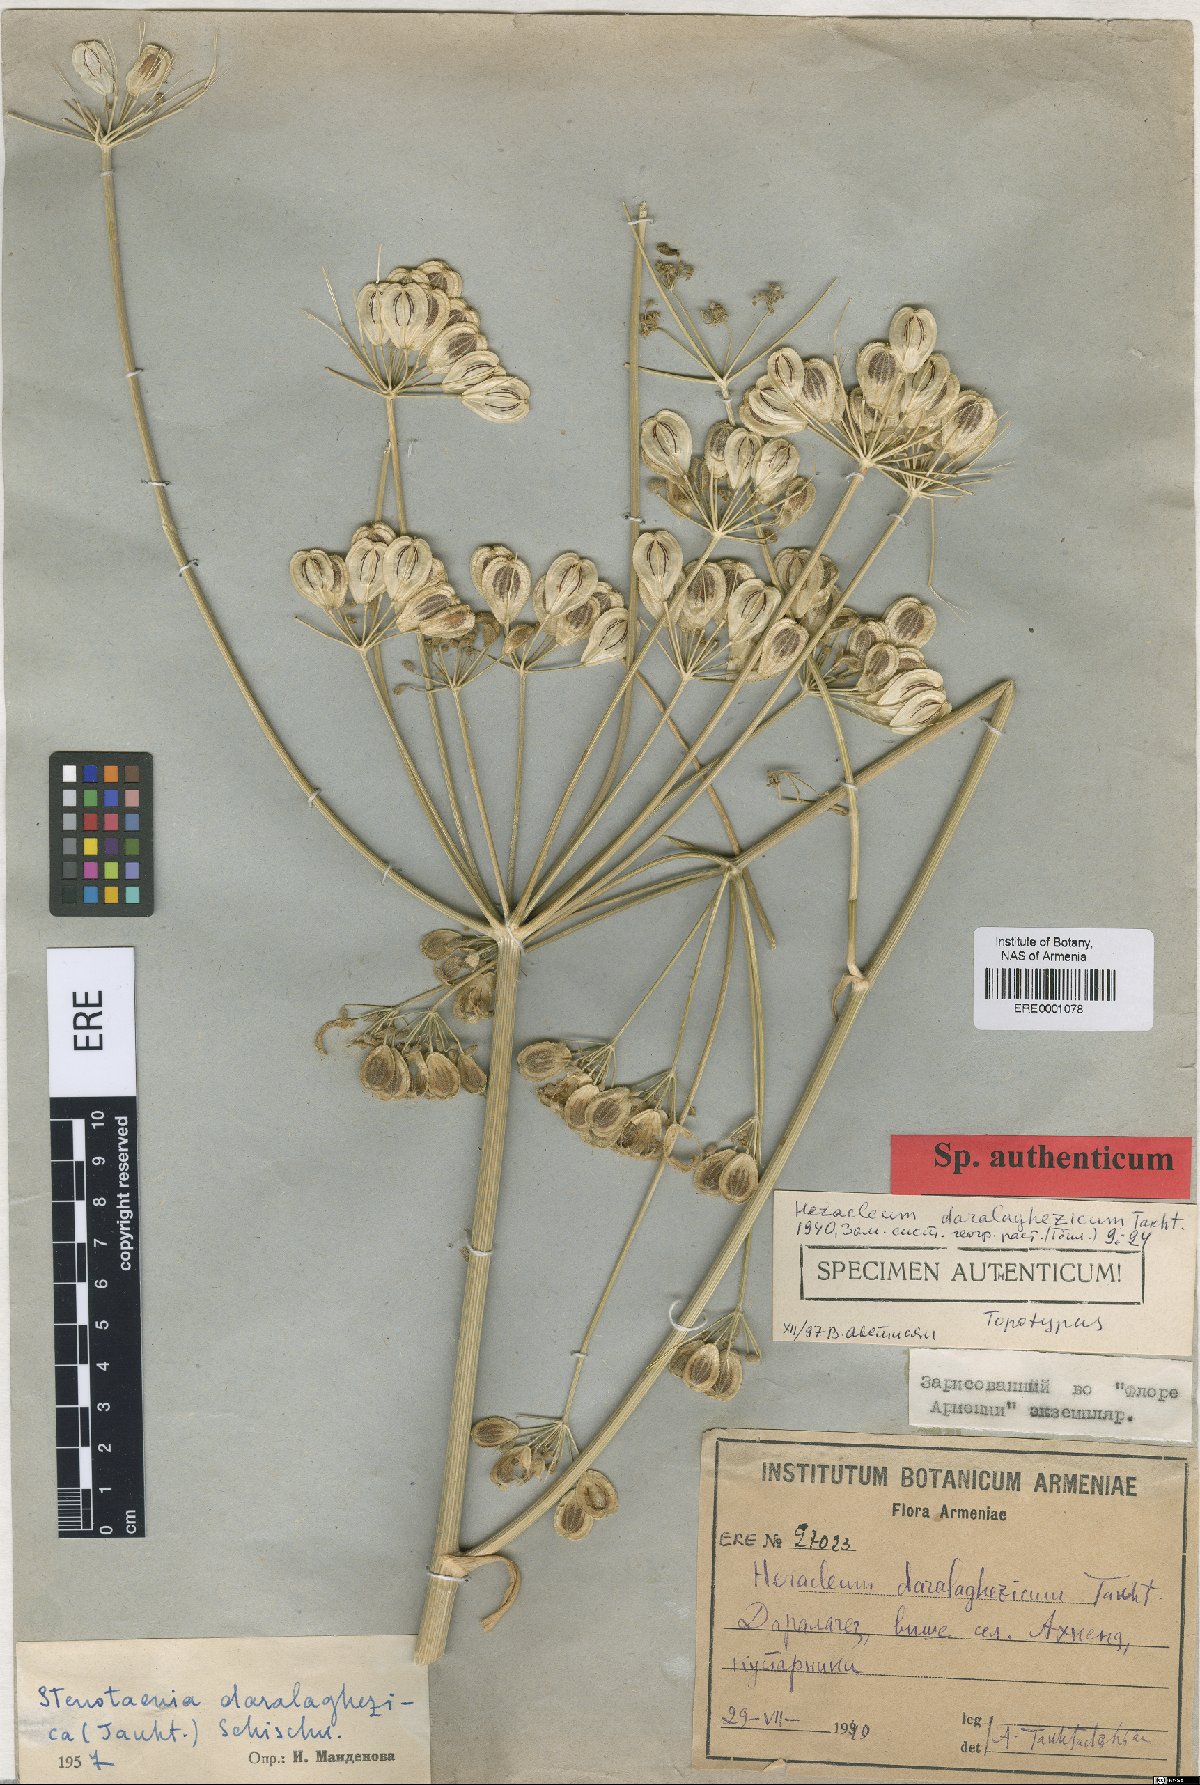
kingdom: Plantae
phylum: Tracheophyta
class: Magnoliopsida
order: Apiales
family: Apiaceae
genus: Stenotaenia
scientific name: Stenotaenia daralaghezica
